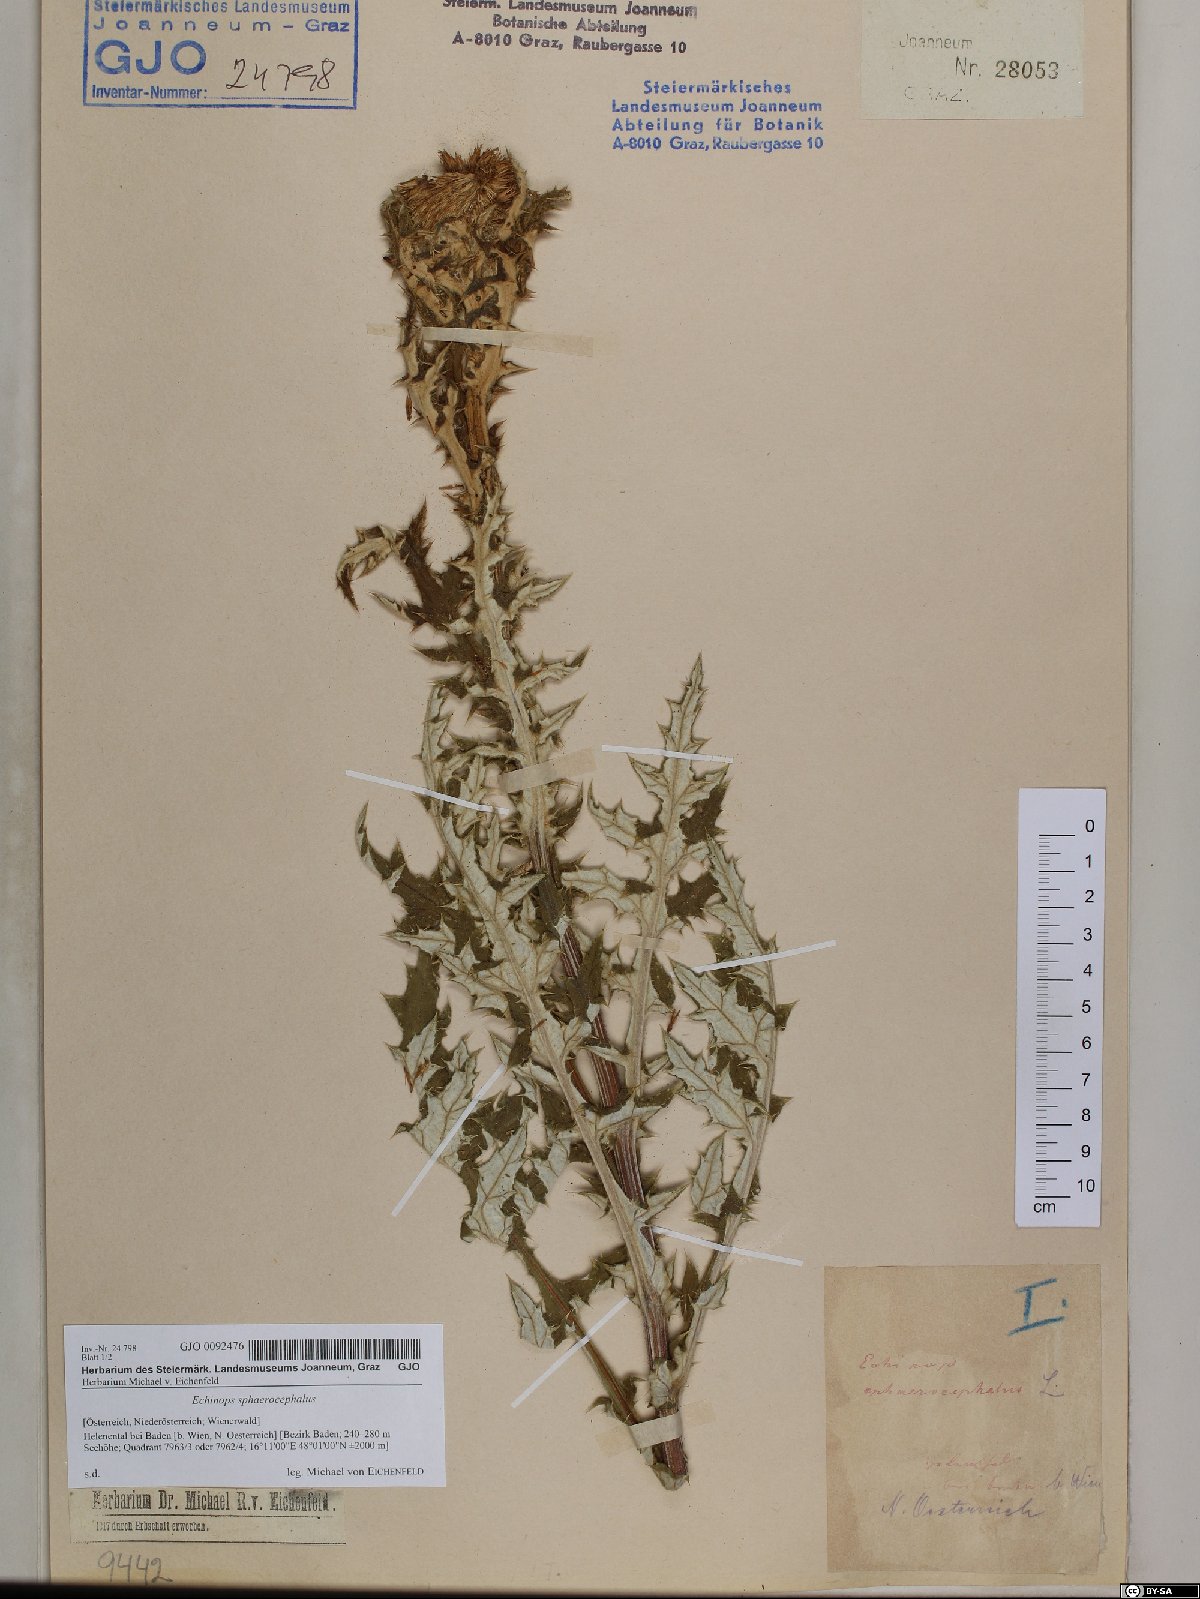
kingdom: Plantae
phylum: Tracheophyta
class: Magnoliopsida
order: Asterales
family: Asteraceae
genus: Echinops
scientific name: Echinops sphaerocephalus
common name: Glandular globe-thistle
